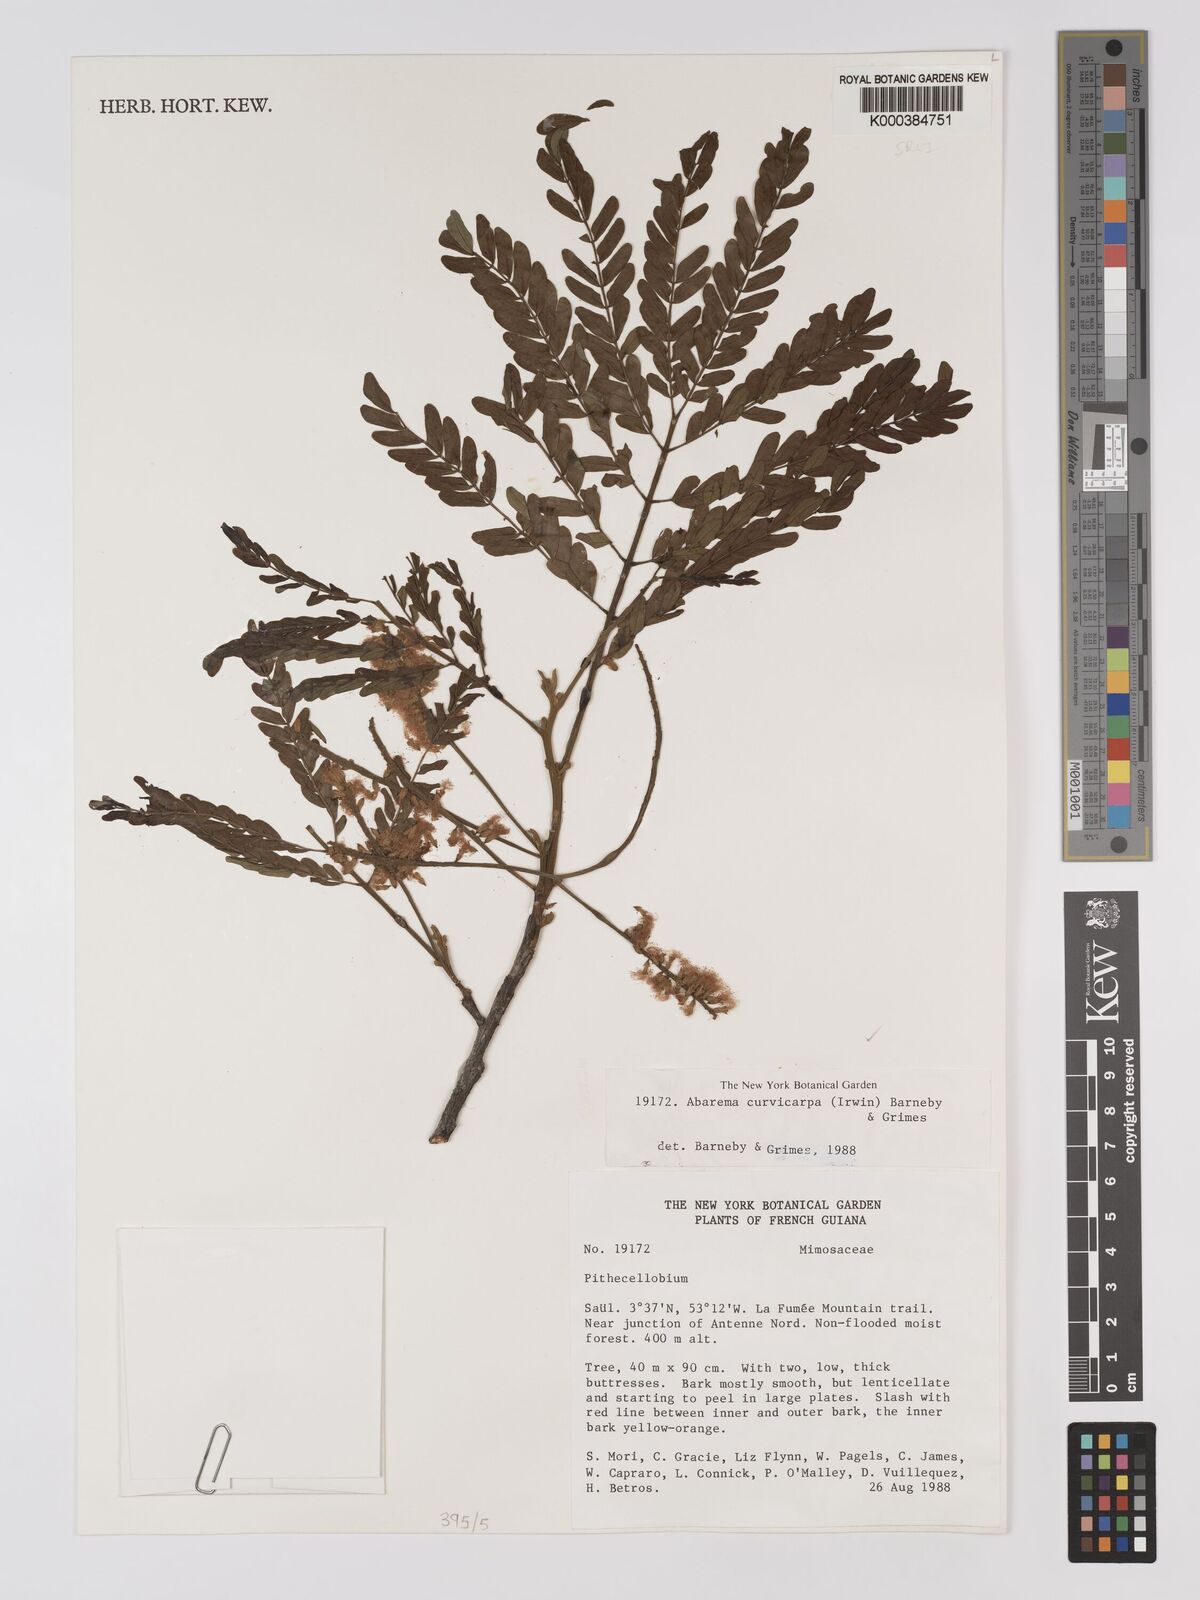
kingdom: Plantae
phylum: Tracheophyta
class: Magnoliopsida
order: Fabales
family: Fabaceae
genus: Jupunba
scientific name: Jupunba curvicarpa
